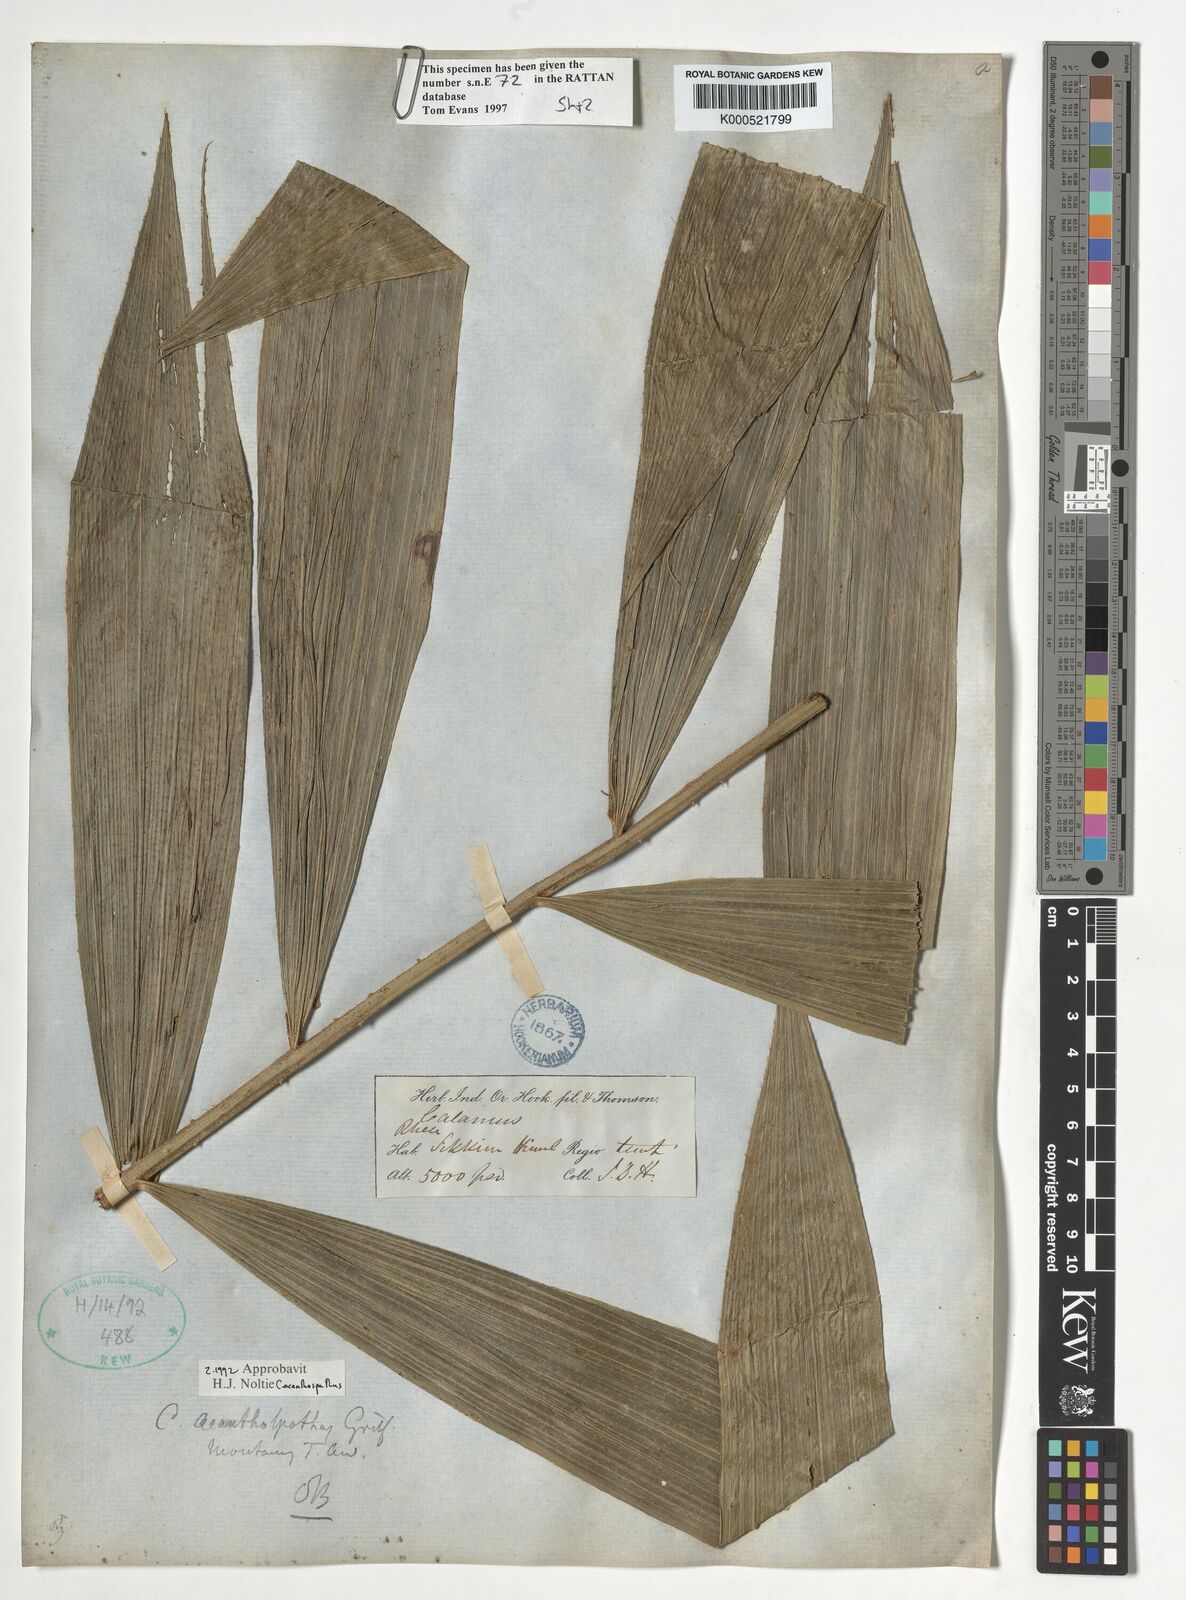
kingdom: Plantae
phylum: Tracheophyta
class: Liliopsida
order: Arecales
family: Arecaceae
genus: Calamus
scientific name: Calamus acanthospathus
